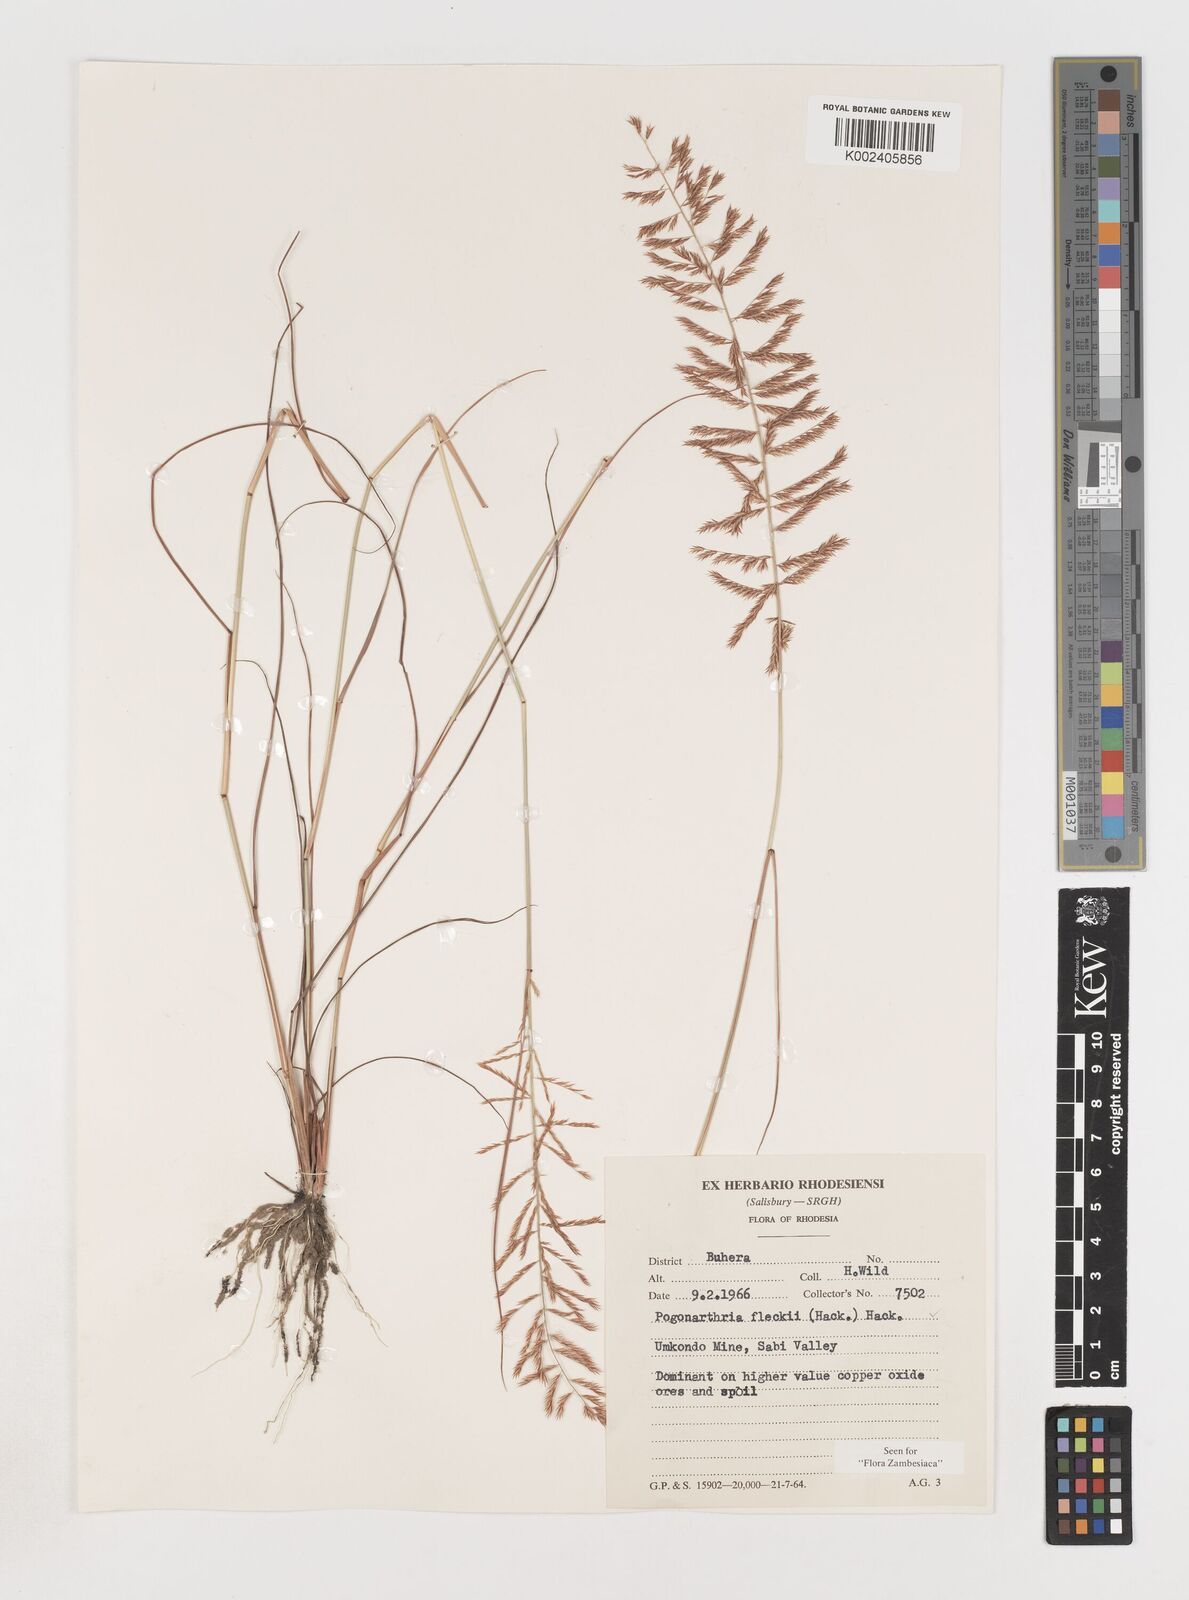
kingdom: Plantae
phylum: Tracheophyta
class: Liliopsida
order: Poales
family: Poaceae
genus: Pogonarthria
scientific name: Pogonarthria fleckii
